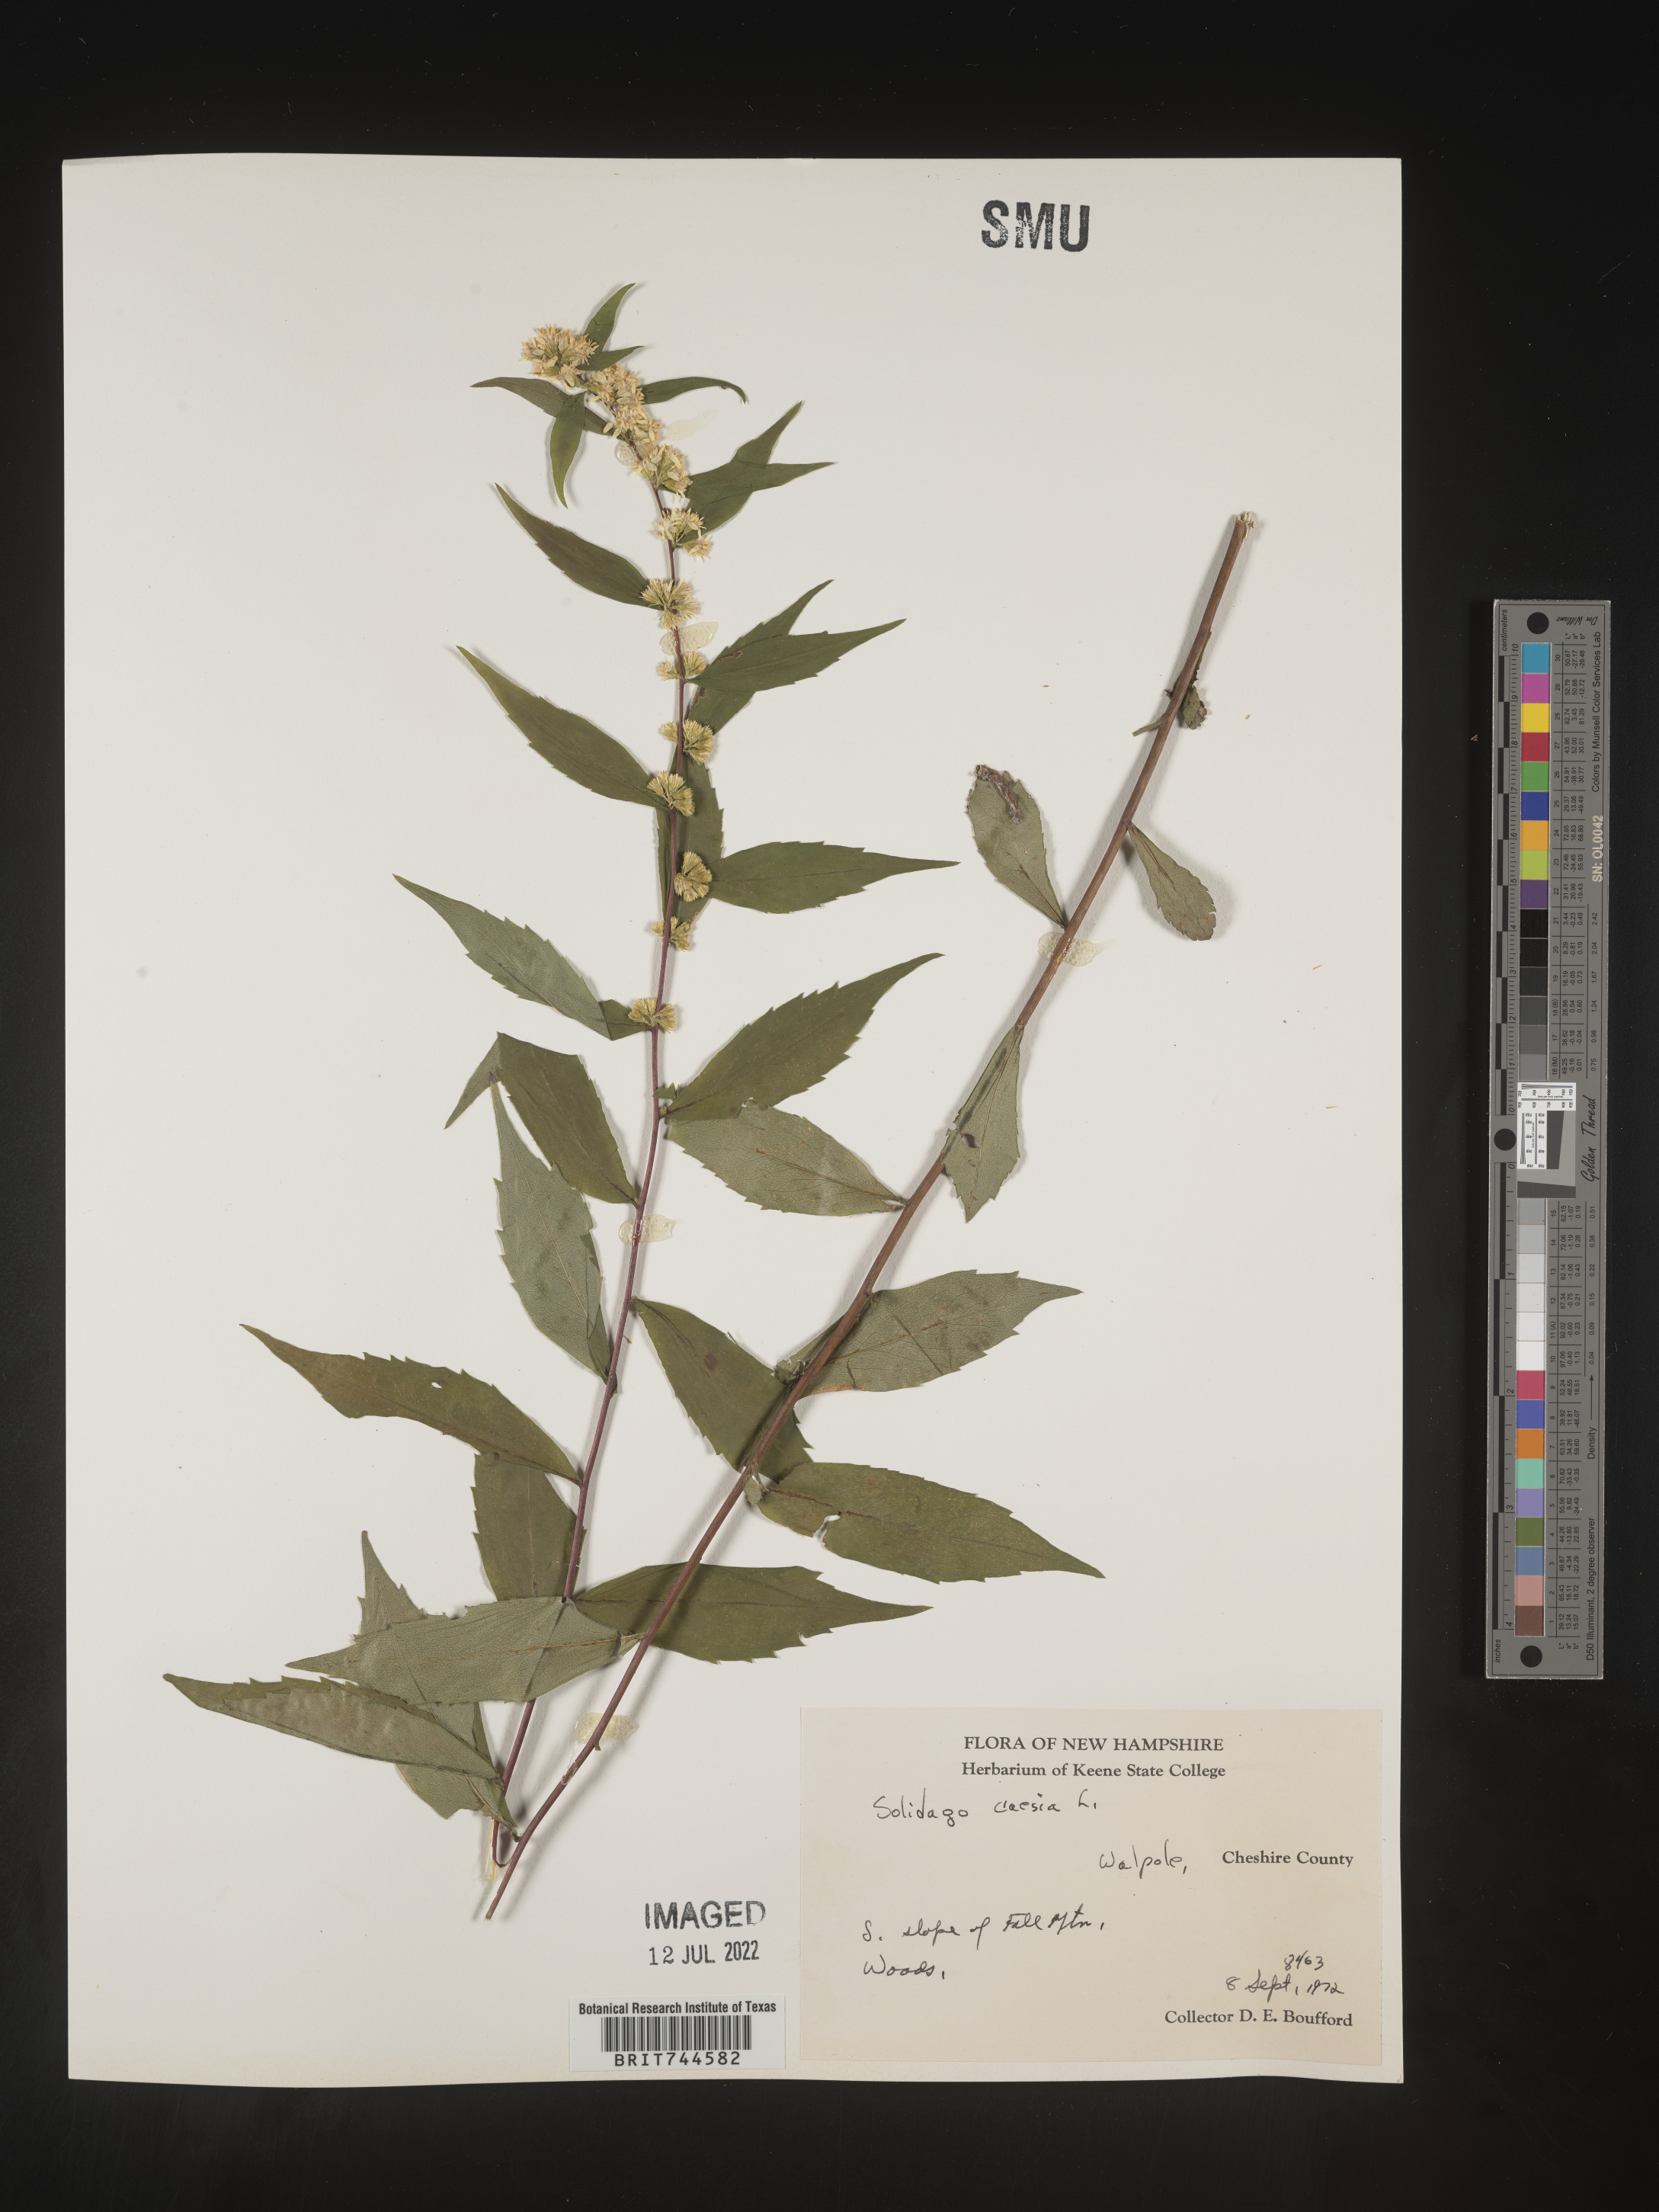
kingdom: Plantae
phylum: Tracheophyta
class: Magnoliopsida
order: Asterales
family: Asteraceae
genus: Solidago
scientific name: Solidago caesia
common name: Woodland goldenrod
